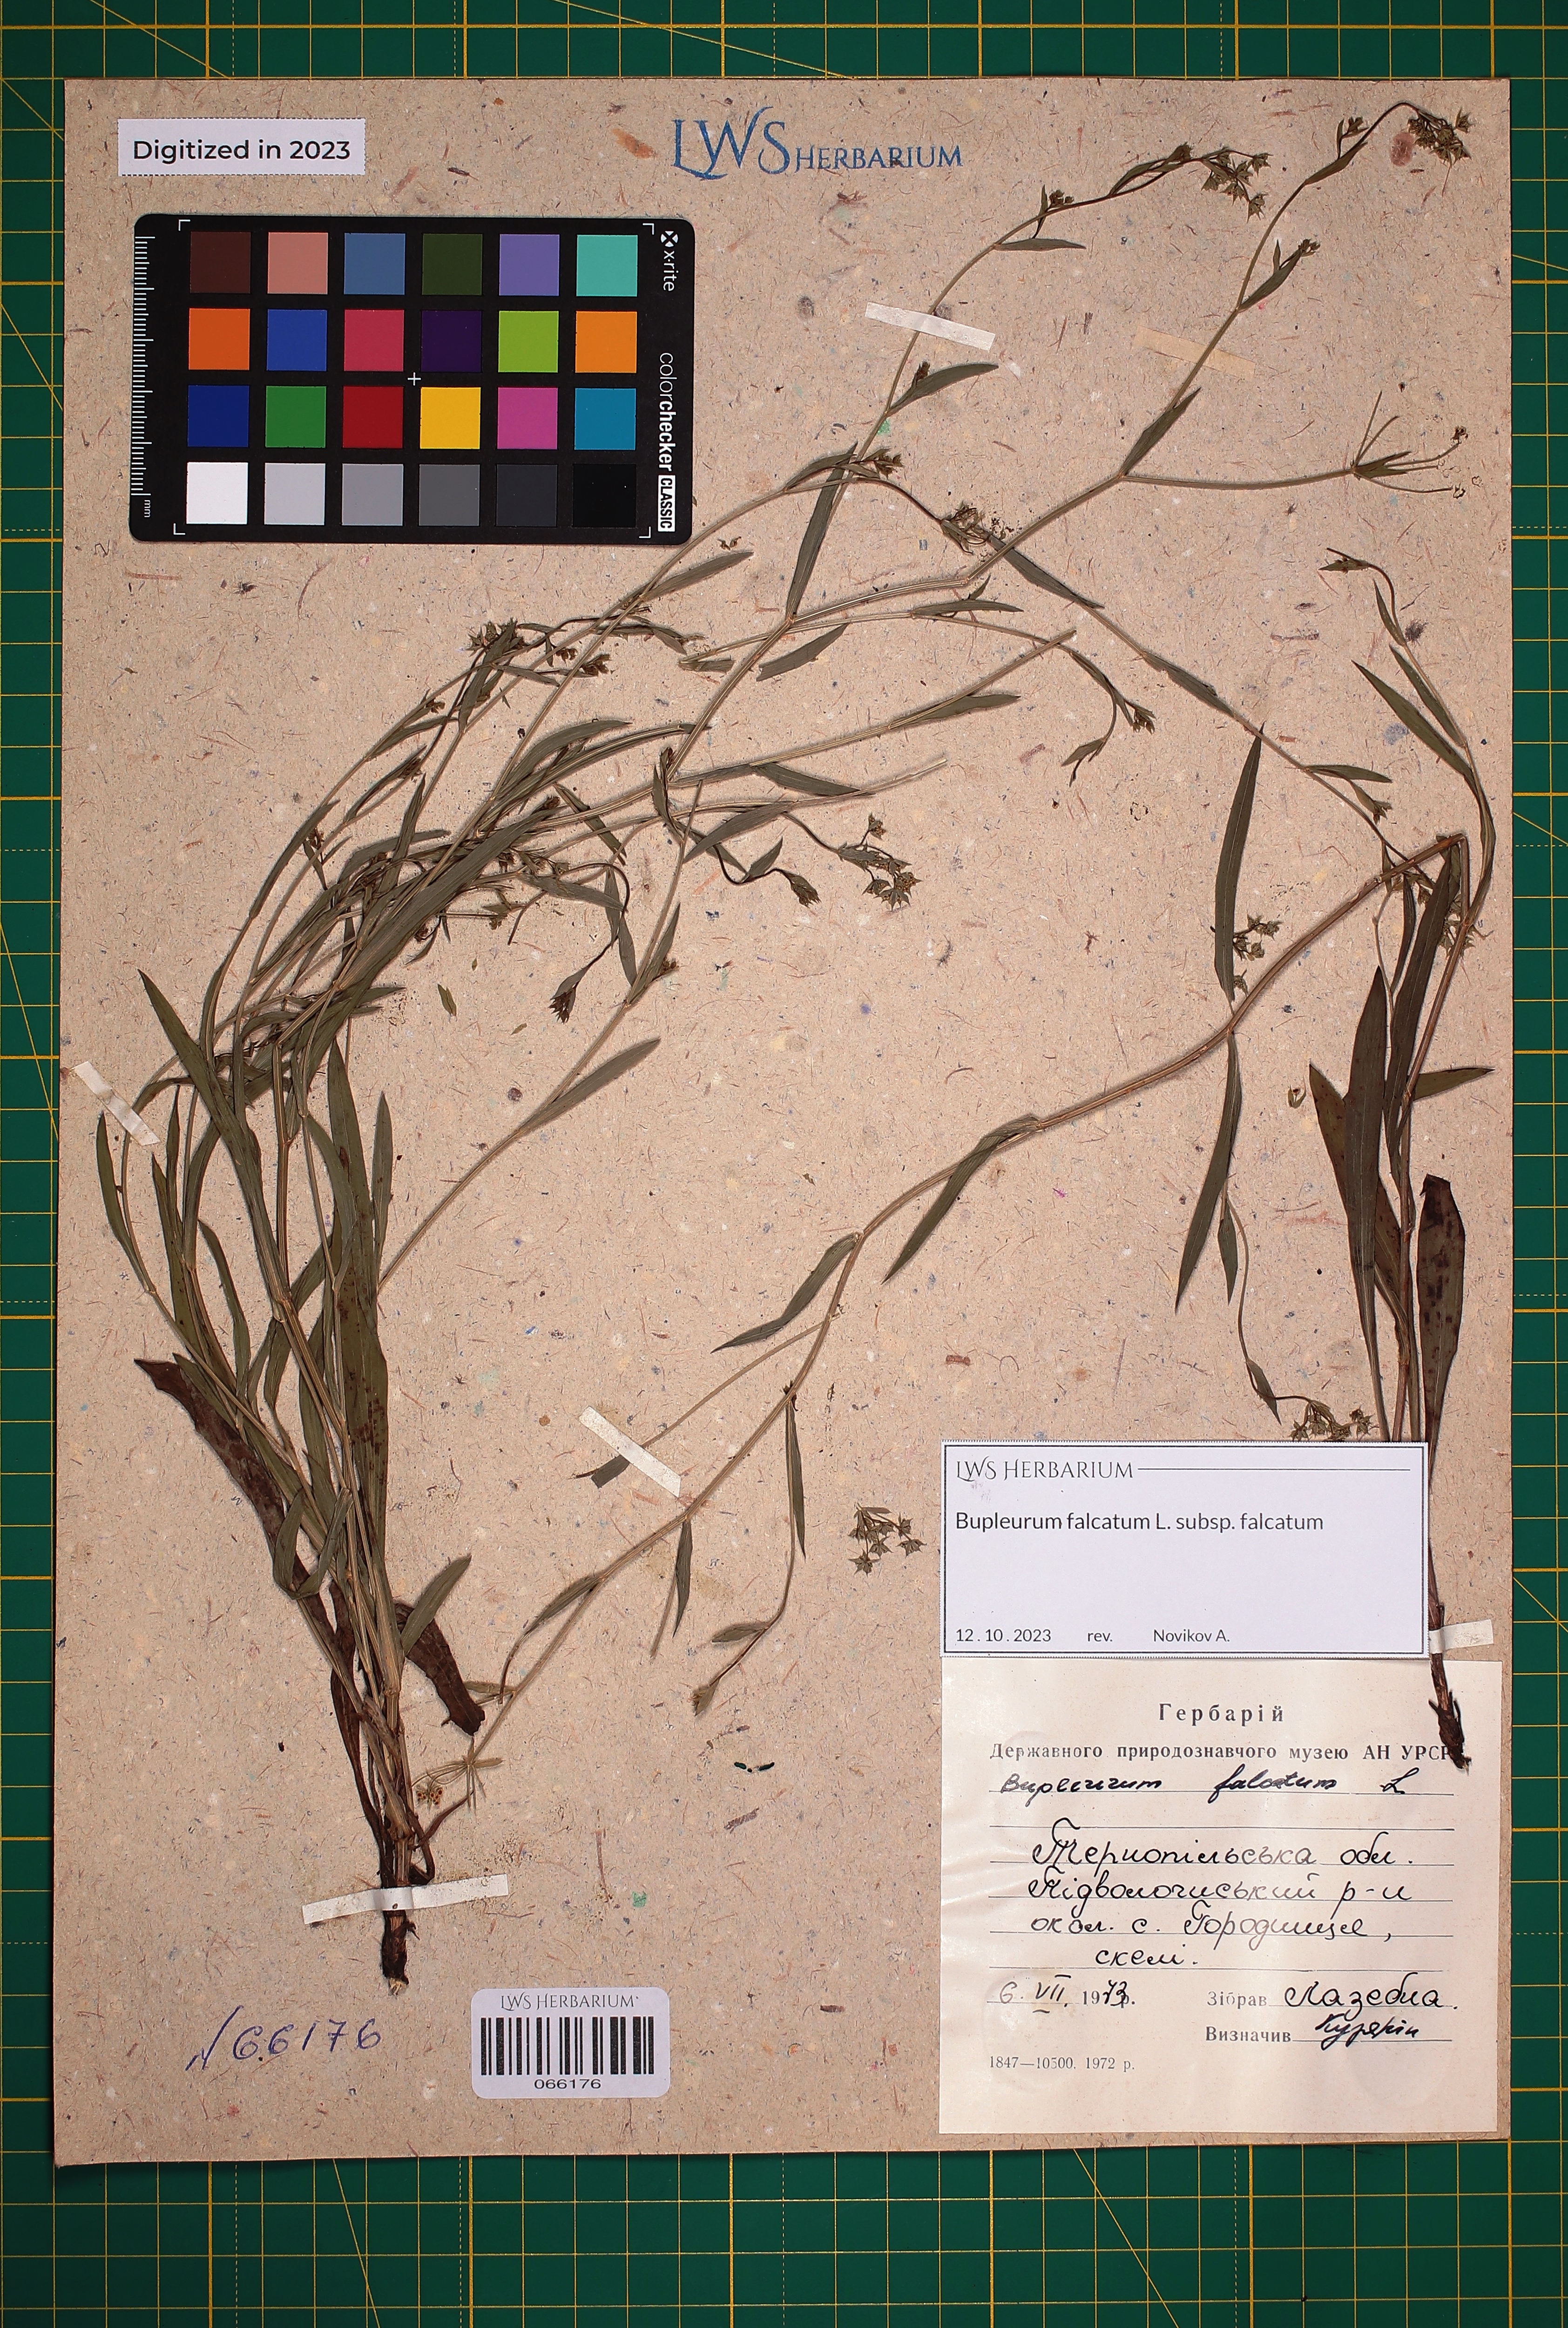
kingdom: Plantae
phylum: Tracheophyta
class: Magnoliopsida
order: Apiales
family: Apiaceae
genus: Bupleurum
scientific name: Bupleurum falcatum
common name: Sickle-leaved hare's-ear
